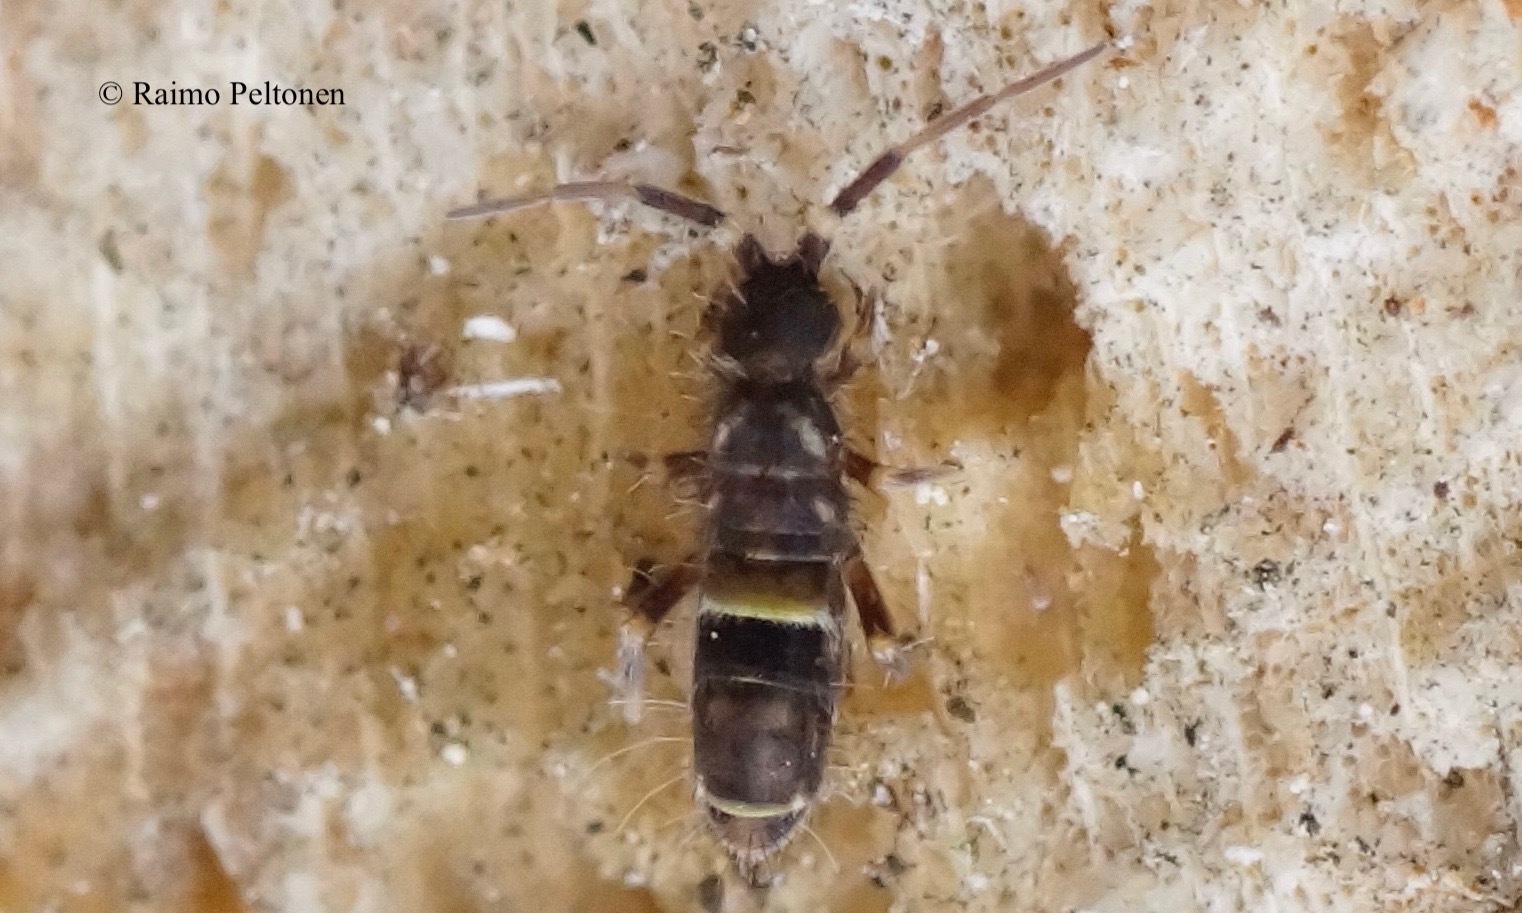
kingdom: Animalia
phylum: Arthropoda
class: Collembola
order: Entomobryomorpha
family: Orchesellidae
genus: Orchesella
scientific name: Orchesella cincta
